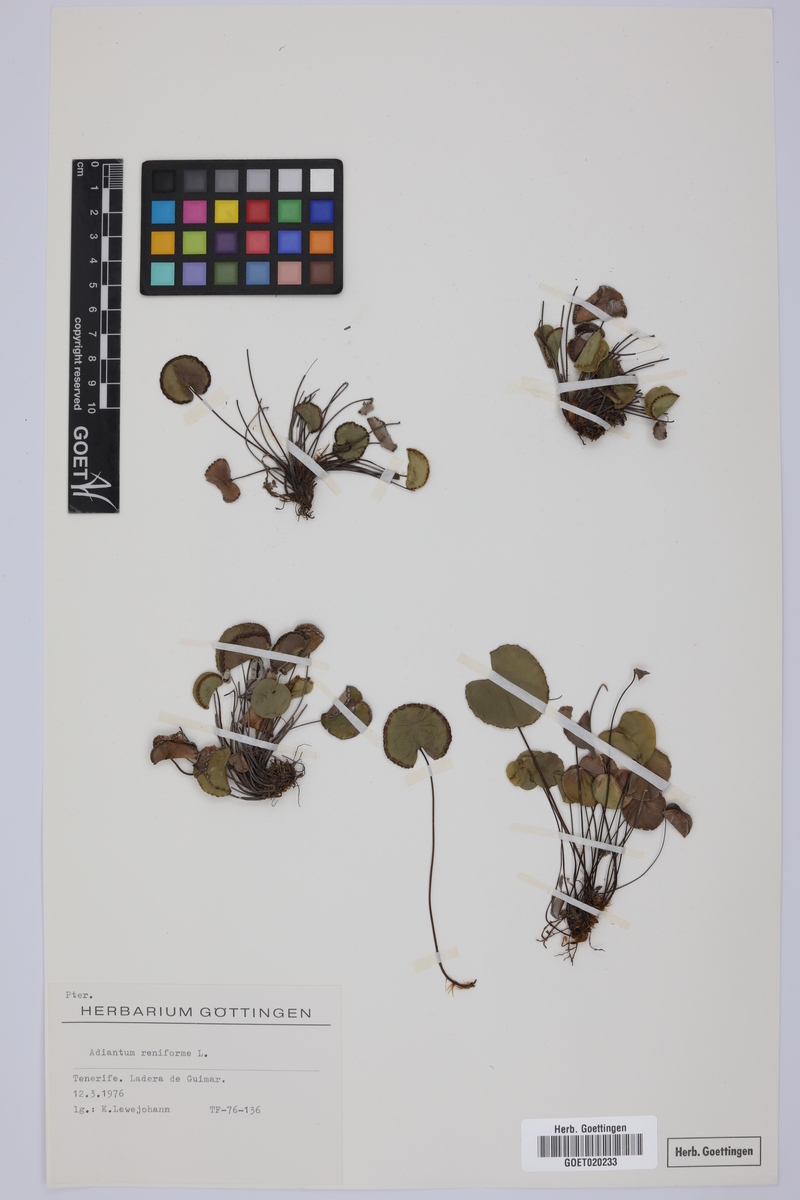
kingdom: Plantae
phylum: Tracheophyta
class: Polypodiopsida
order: Polypodiales
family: Pteridaceae
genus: Adiantum
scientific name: Adiantum reniforme
